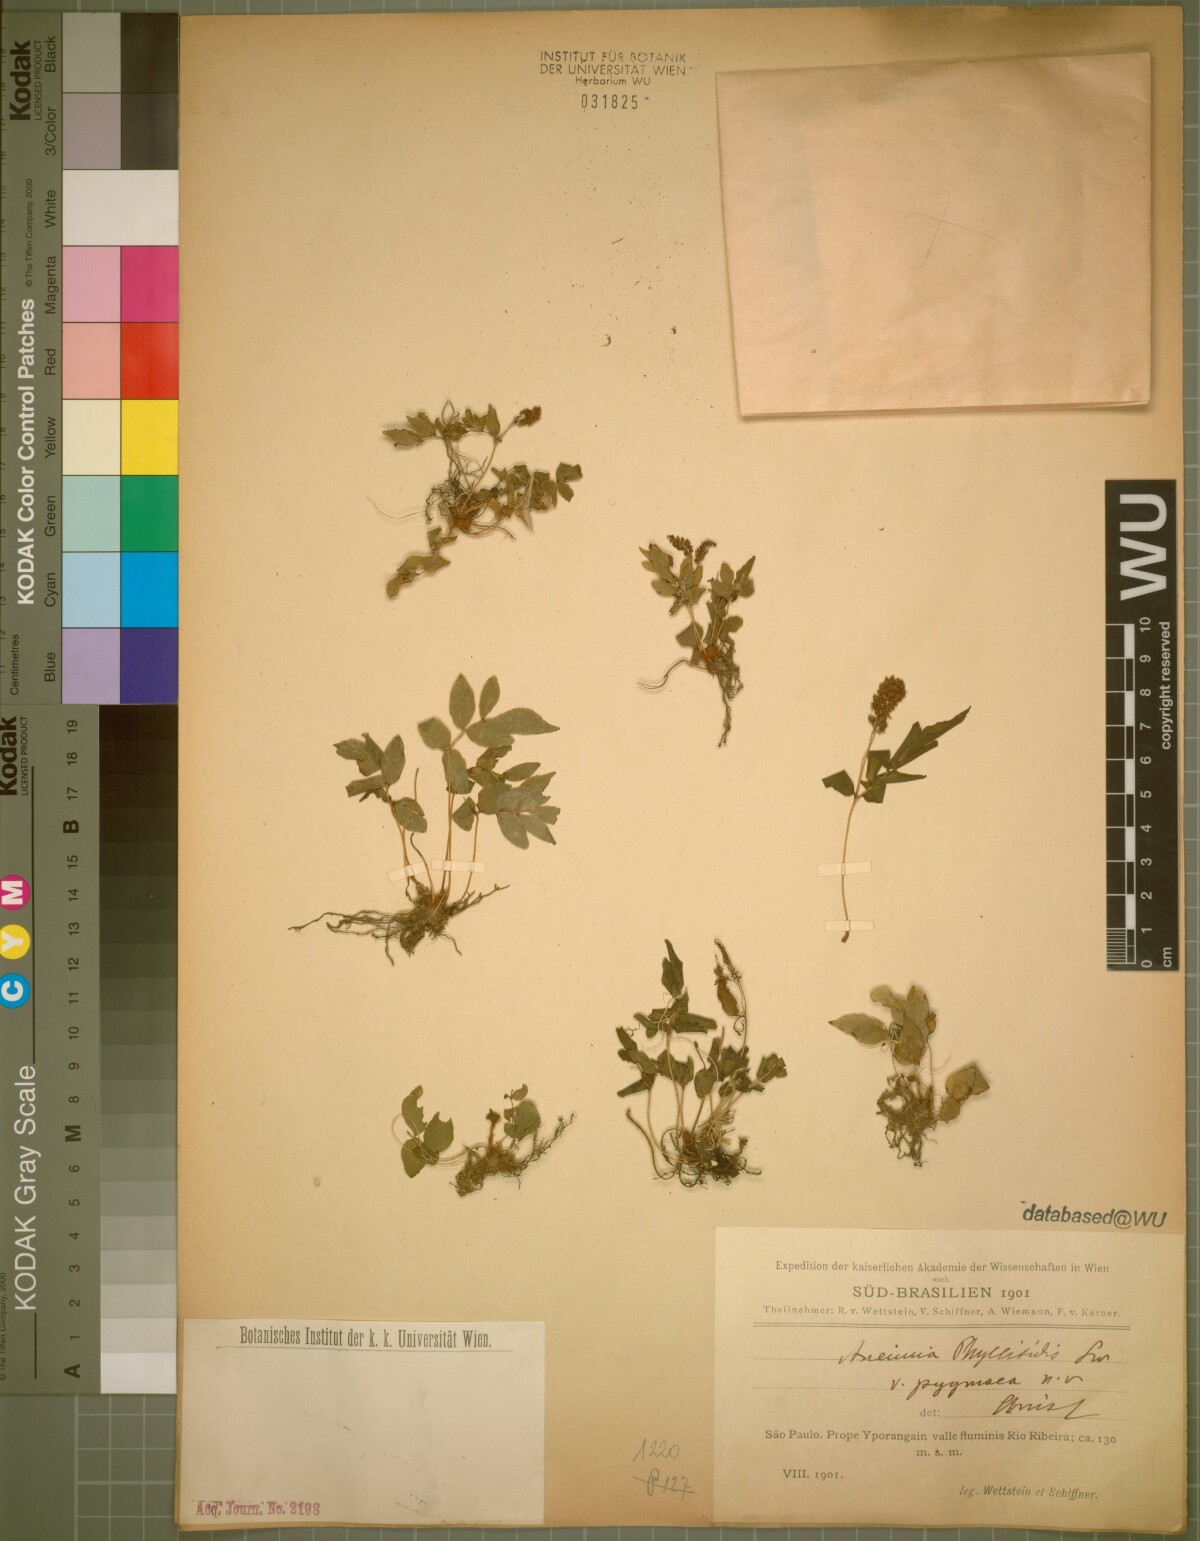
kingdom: Plantae
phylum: Tracheophyta
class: Polypodiopsida
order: Schizaeales
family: Anemiaceae
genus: Anemia
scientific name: Anemia phyllitidis
